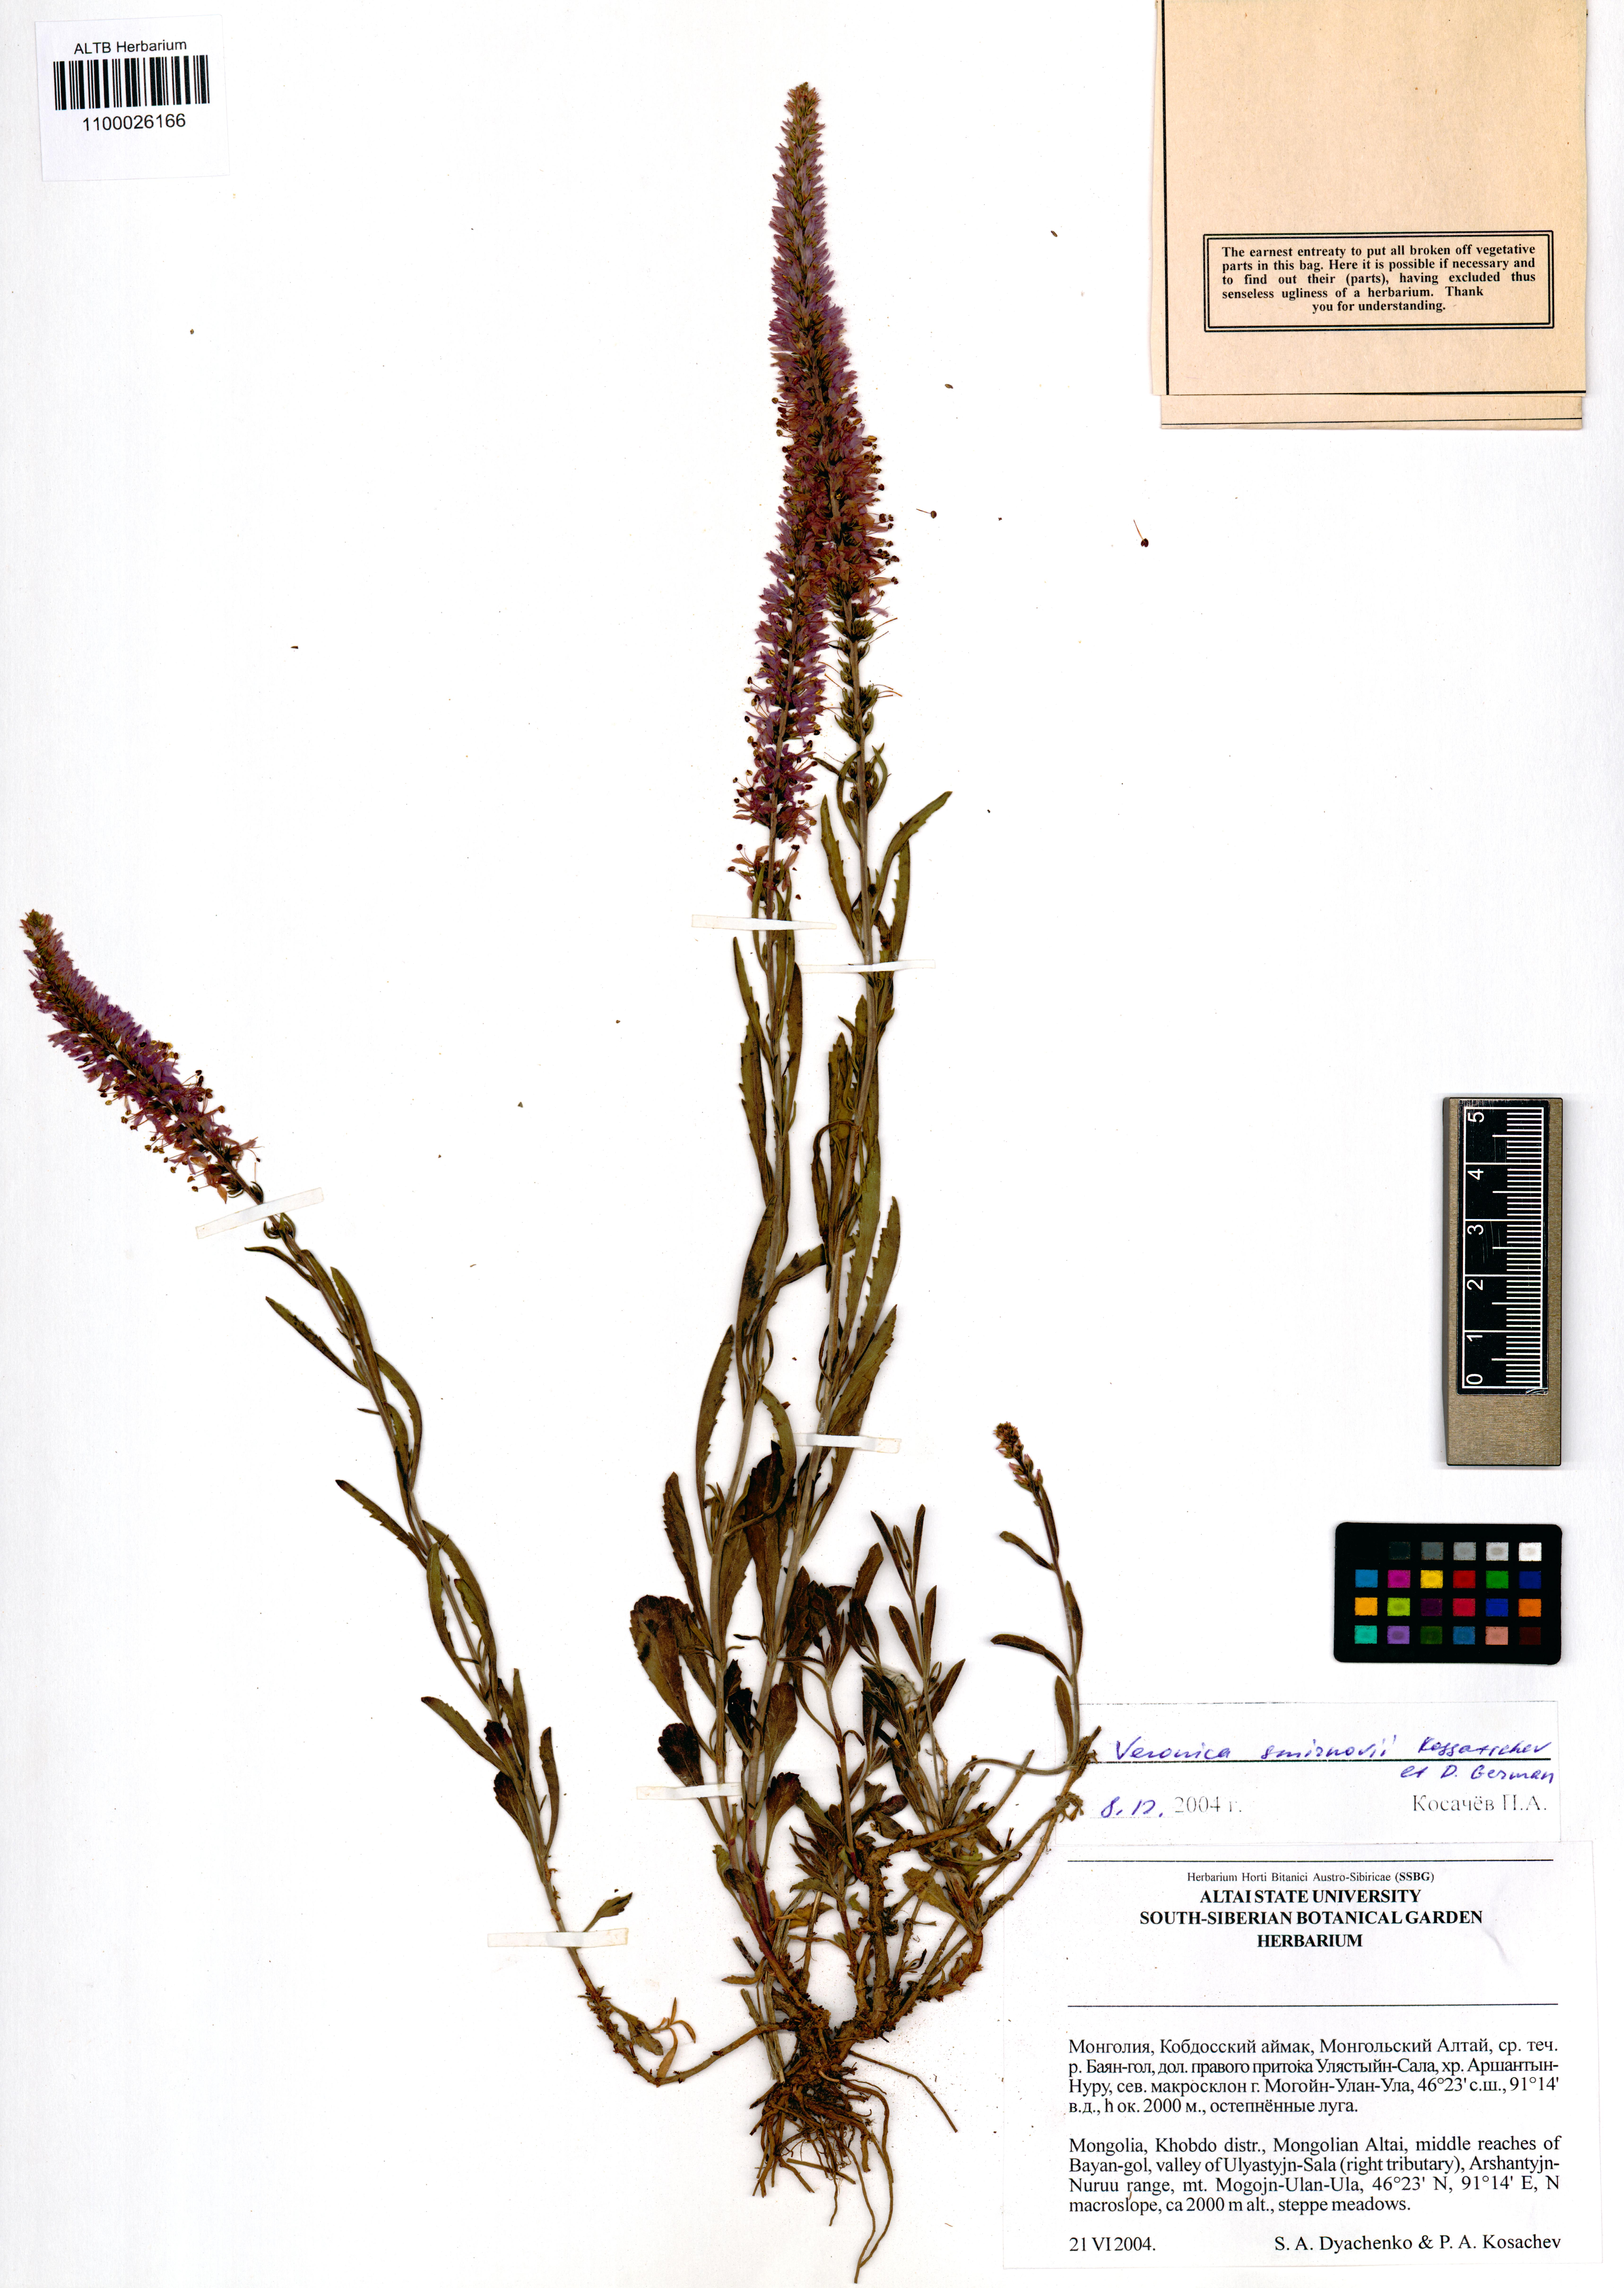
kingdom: Plantae
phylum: Tracheophyta
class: Magnoliopsida
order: Lamiales
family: Plantaginaceae
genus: Veronica
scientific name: Veronica smirnovii
